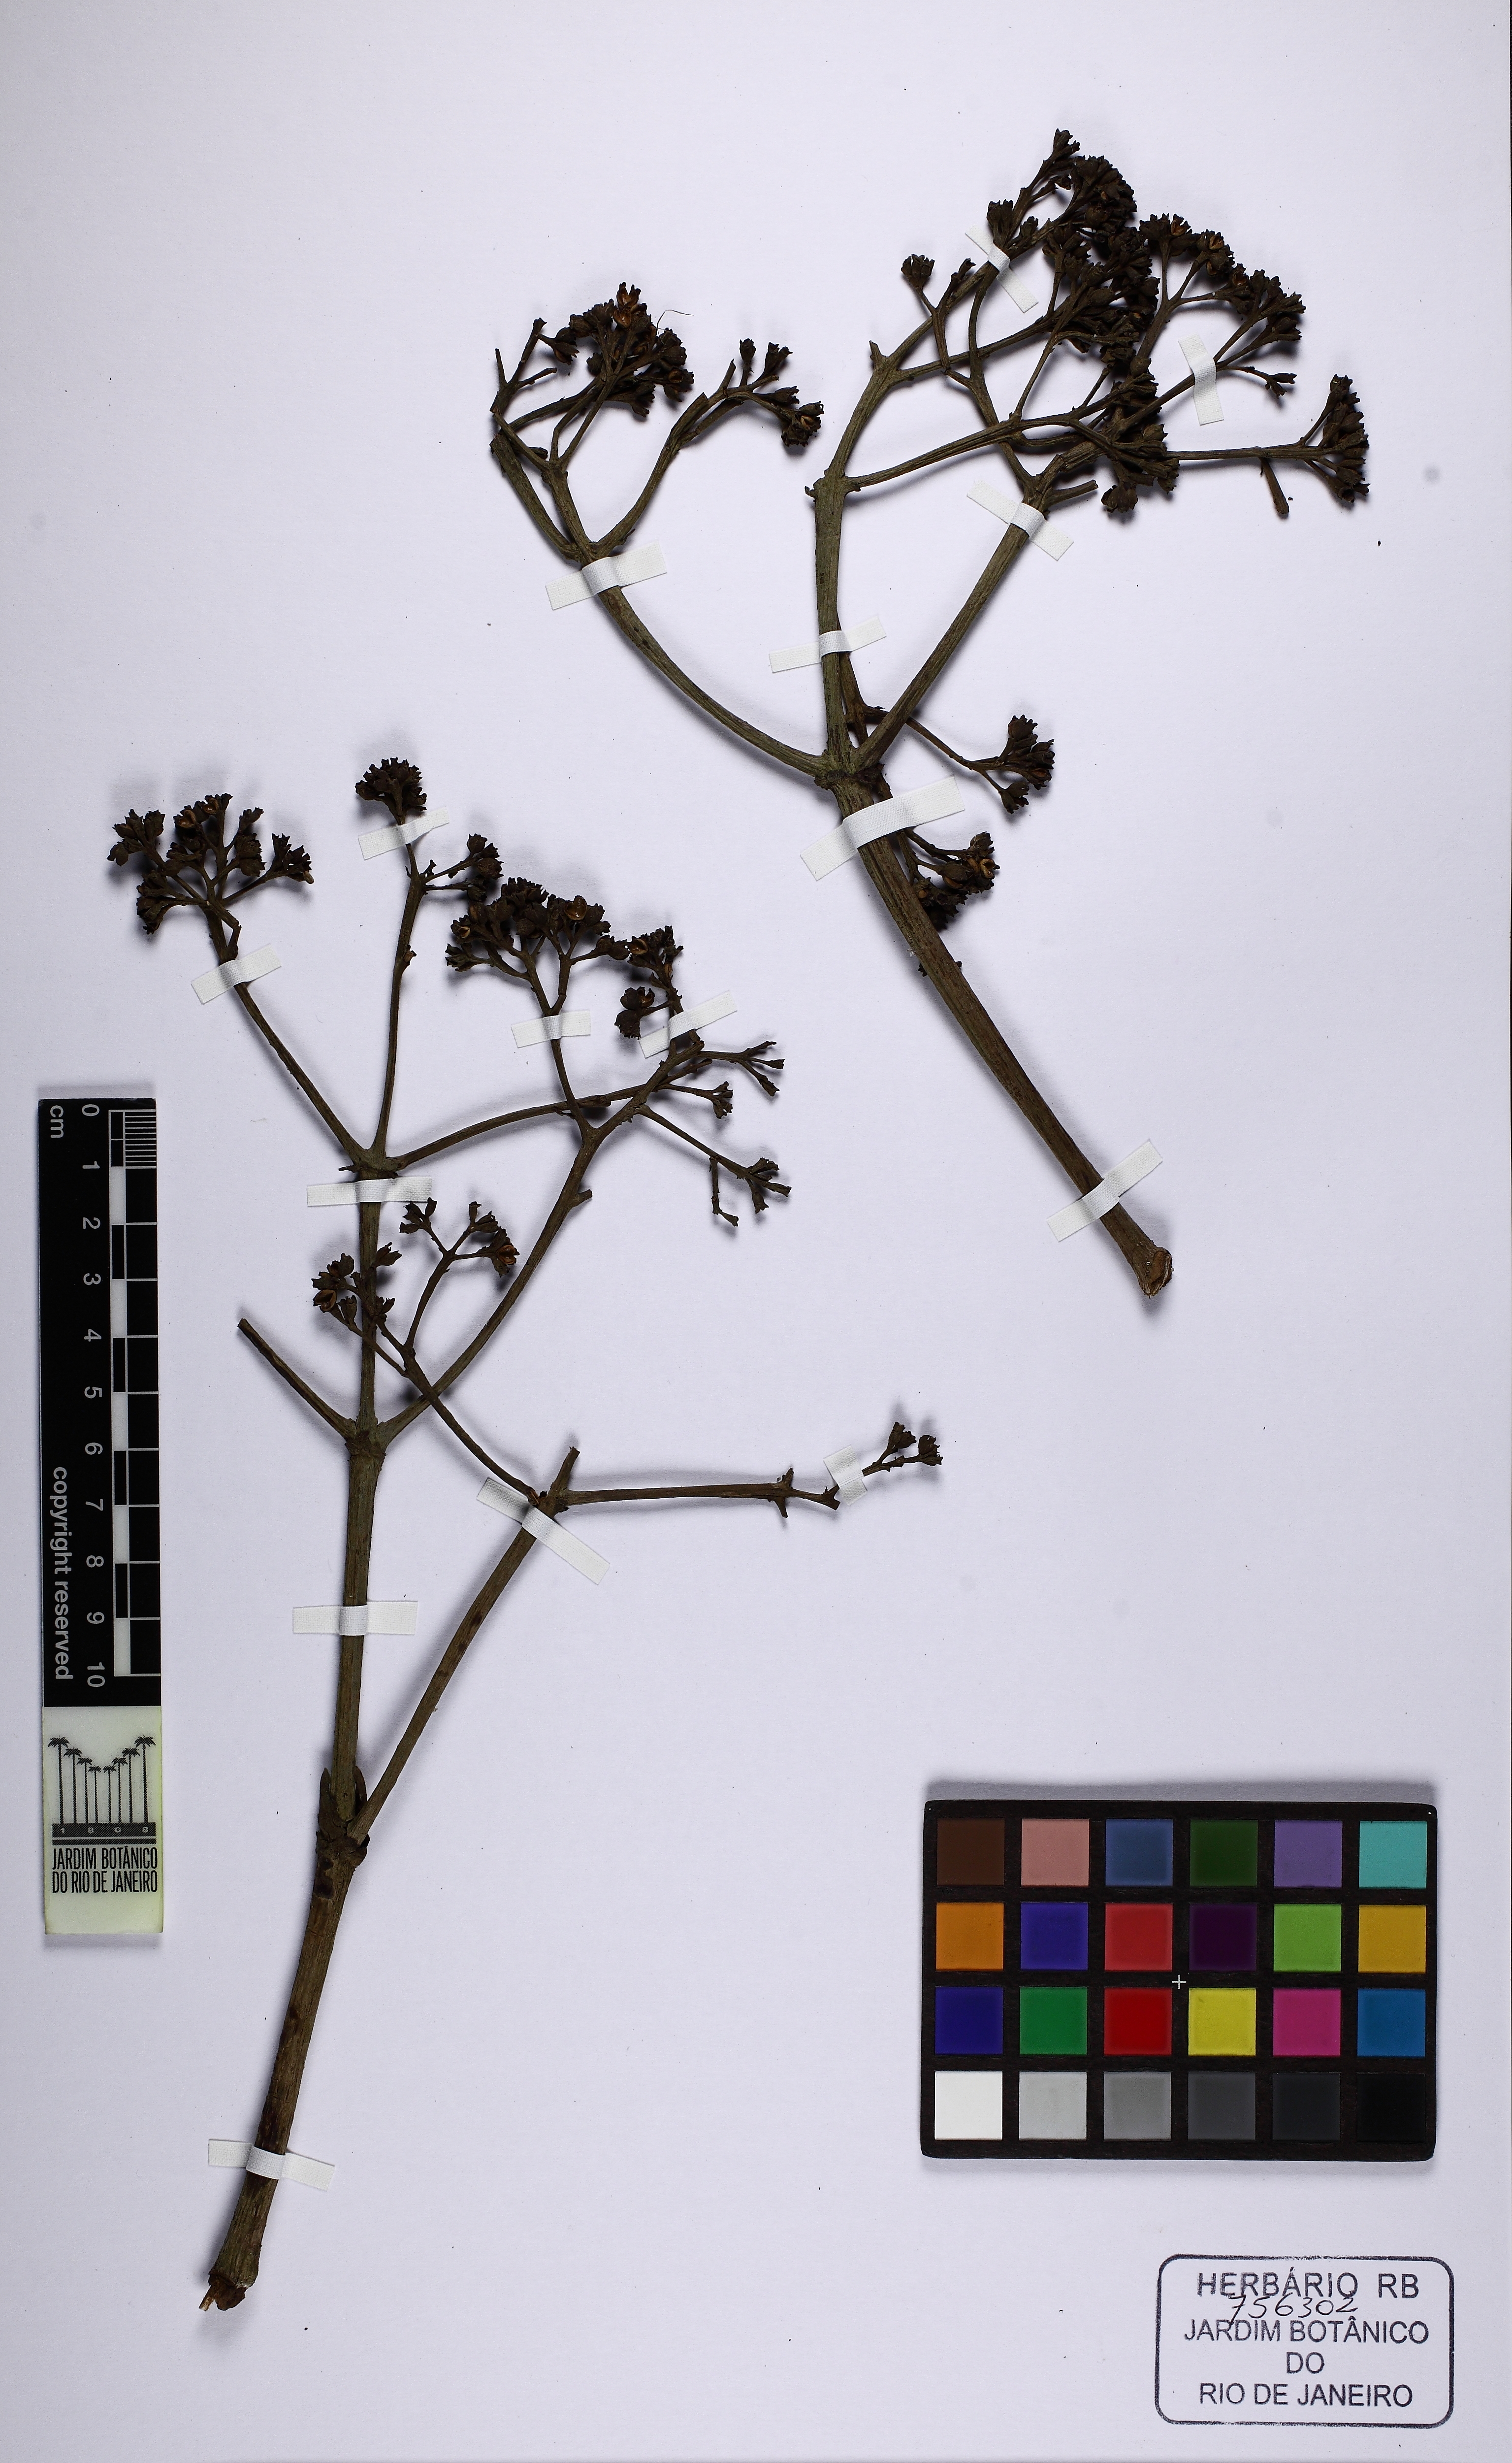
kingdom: Plantae
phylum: Tracheophyta
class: Magnoliopsida
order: Gentianales
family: Rubiaceae
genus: Bathysa
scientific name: Bathysa australis
